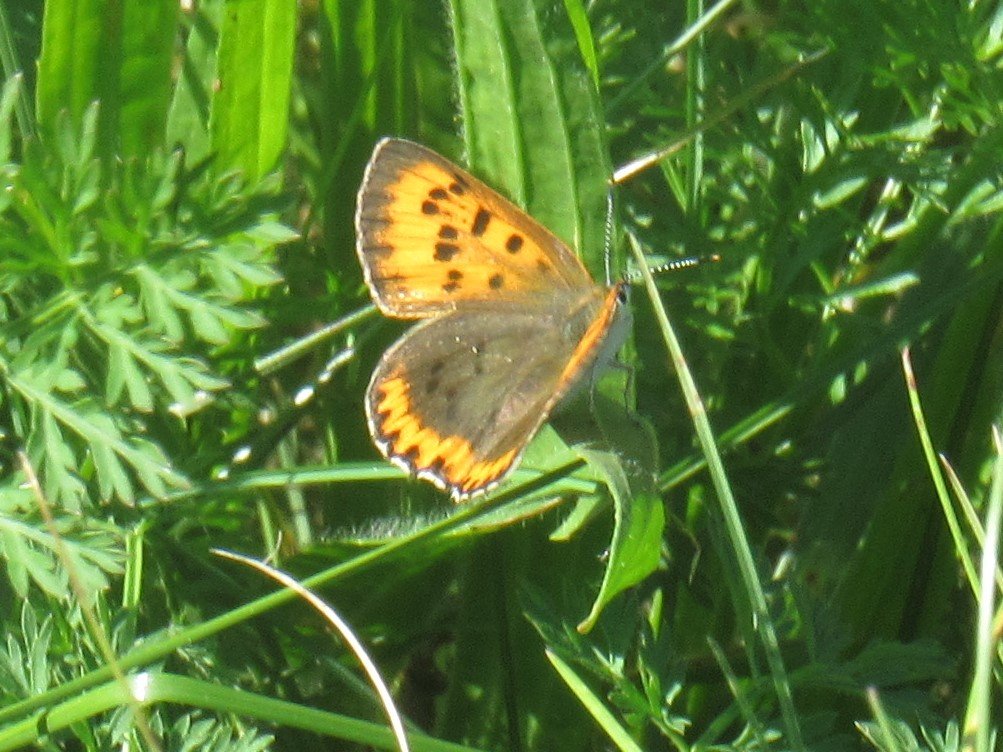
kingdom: Animalia
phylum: Arthropoda
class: Insecta
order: Lepidoptera
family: Sesiidae
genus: Sesia
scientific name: Sesia Lycaena hyllus
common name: Bronze Copper
